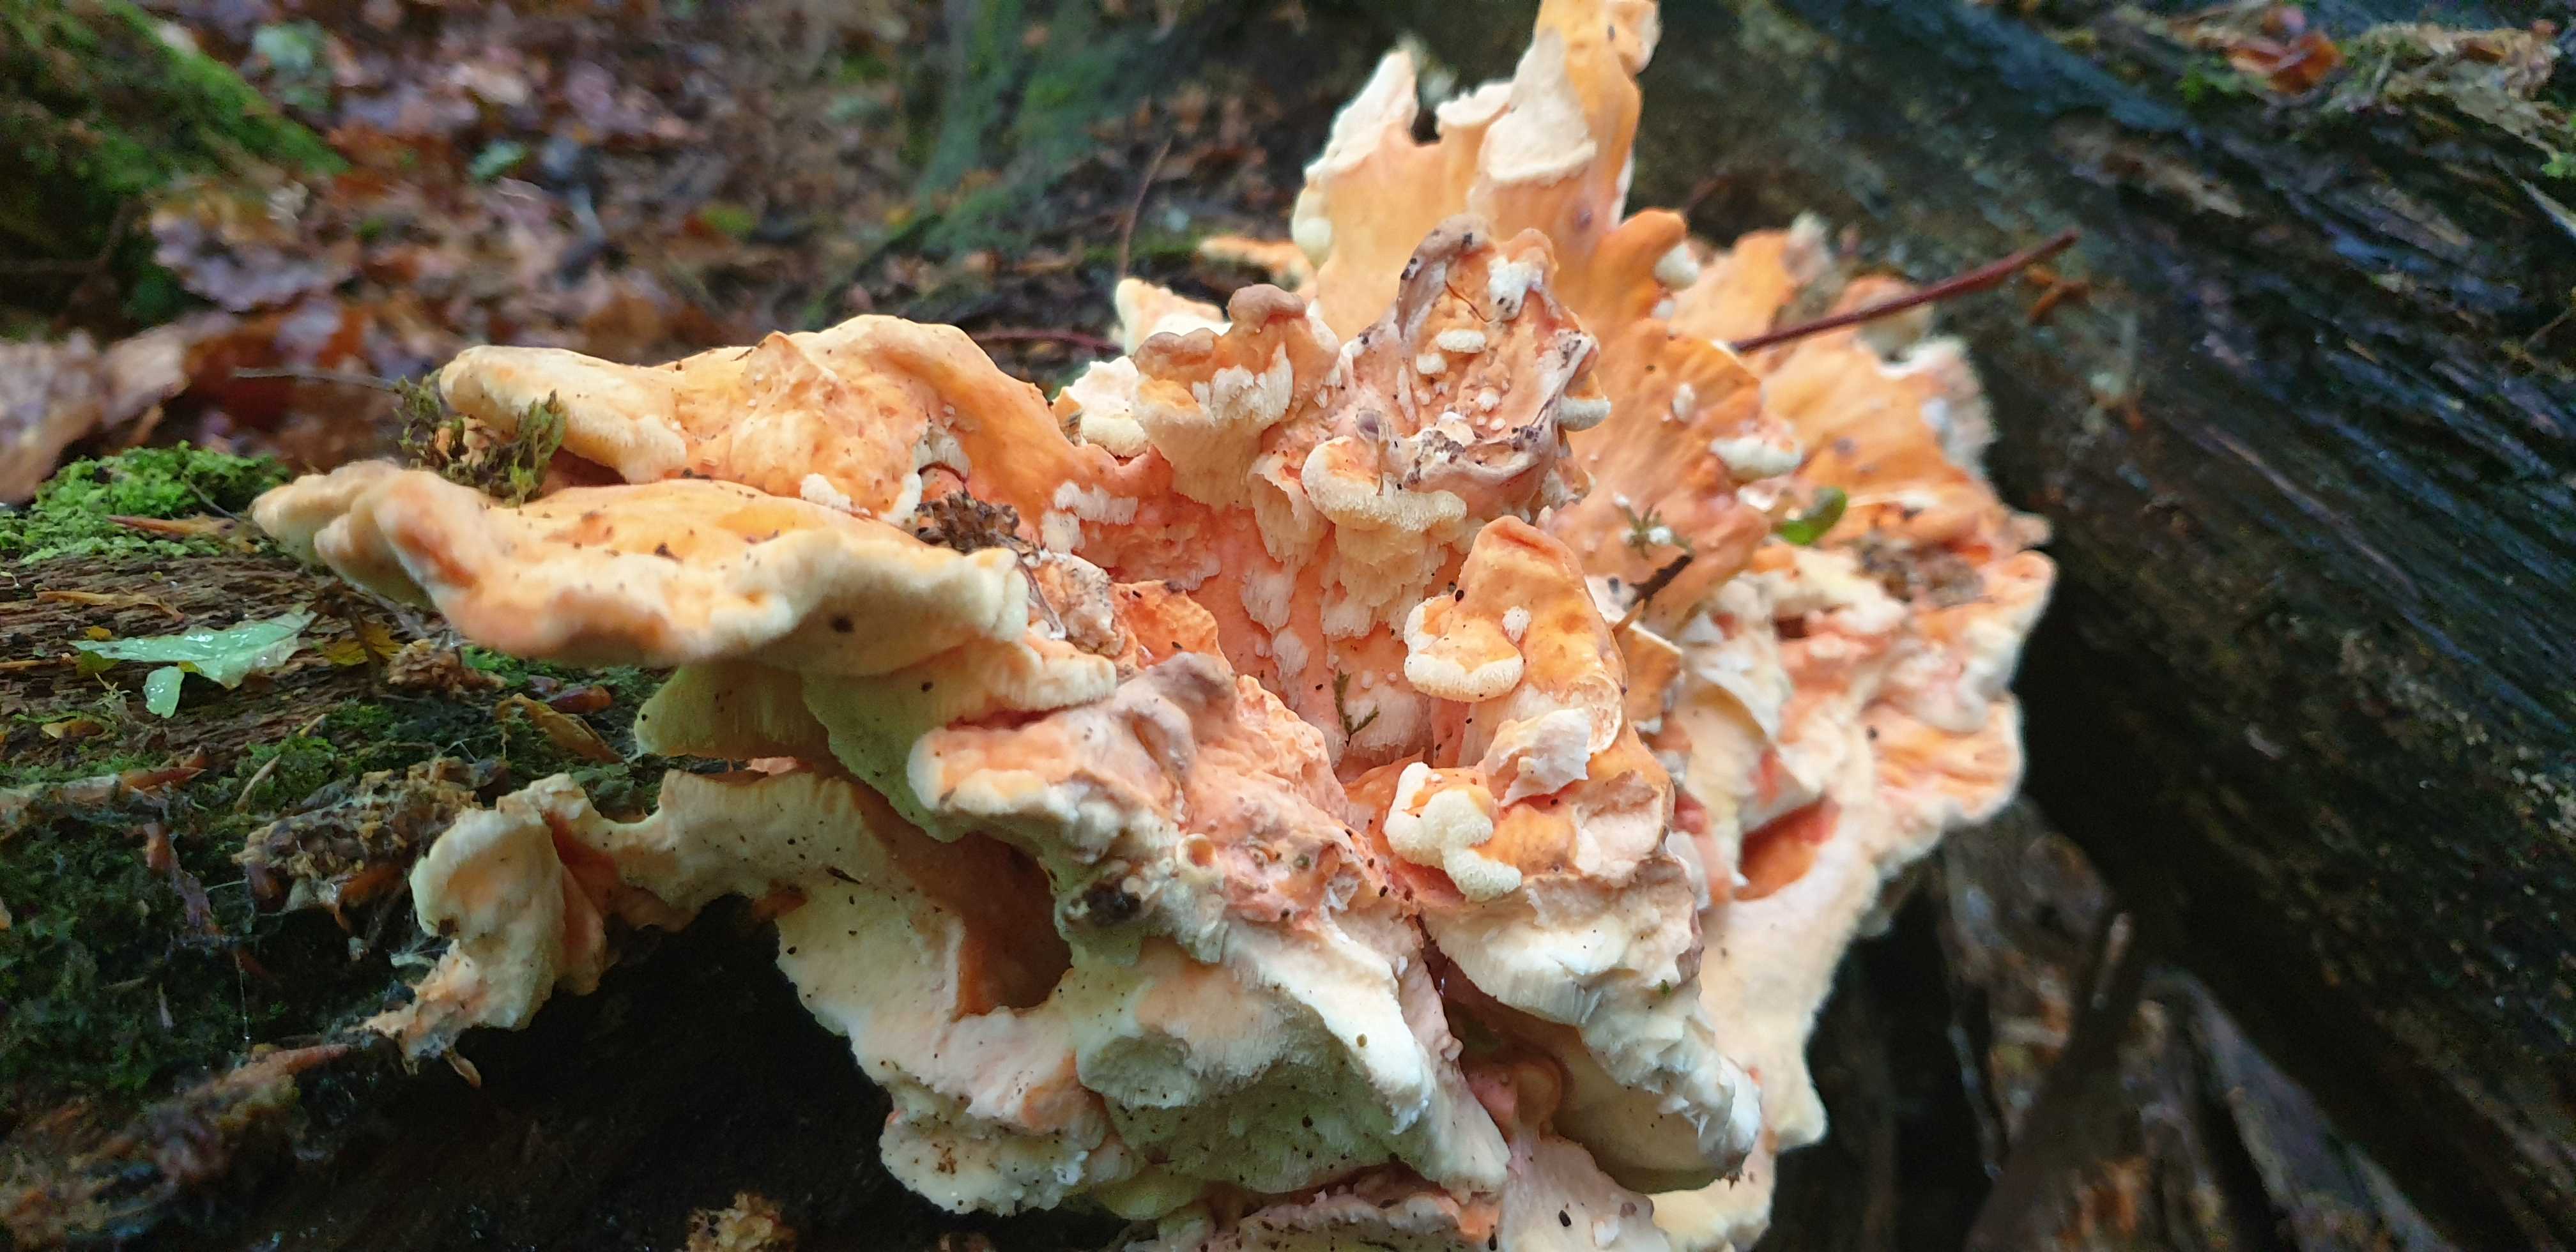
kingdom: Fungi
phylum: Basidiomycota
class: Agaricomycetes
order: Polyporales
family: Laetiporaceae
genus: Laetiporus
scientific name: Laetiporus sulphureus
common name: svovlporesvamp
